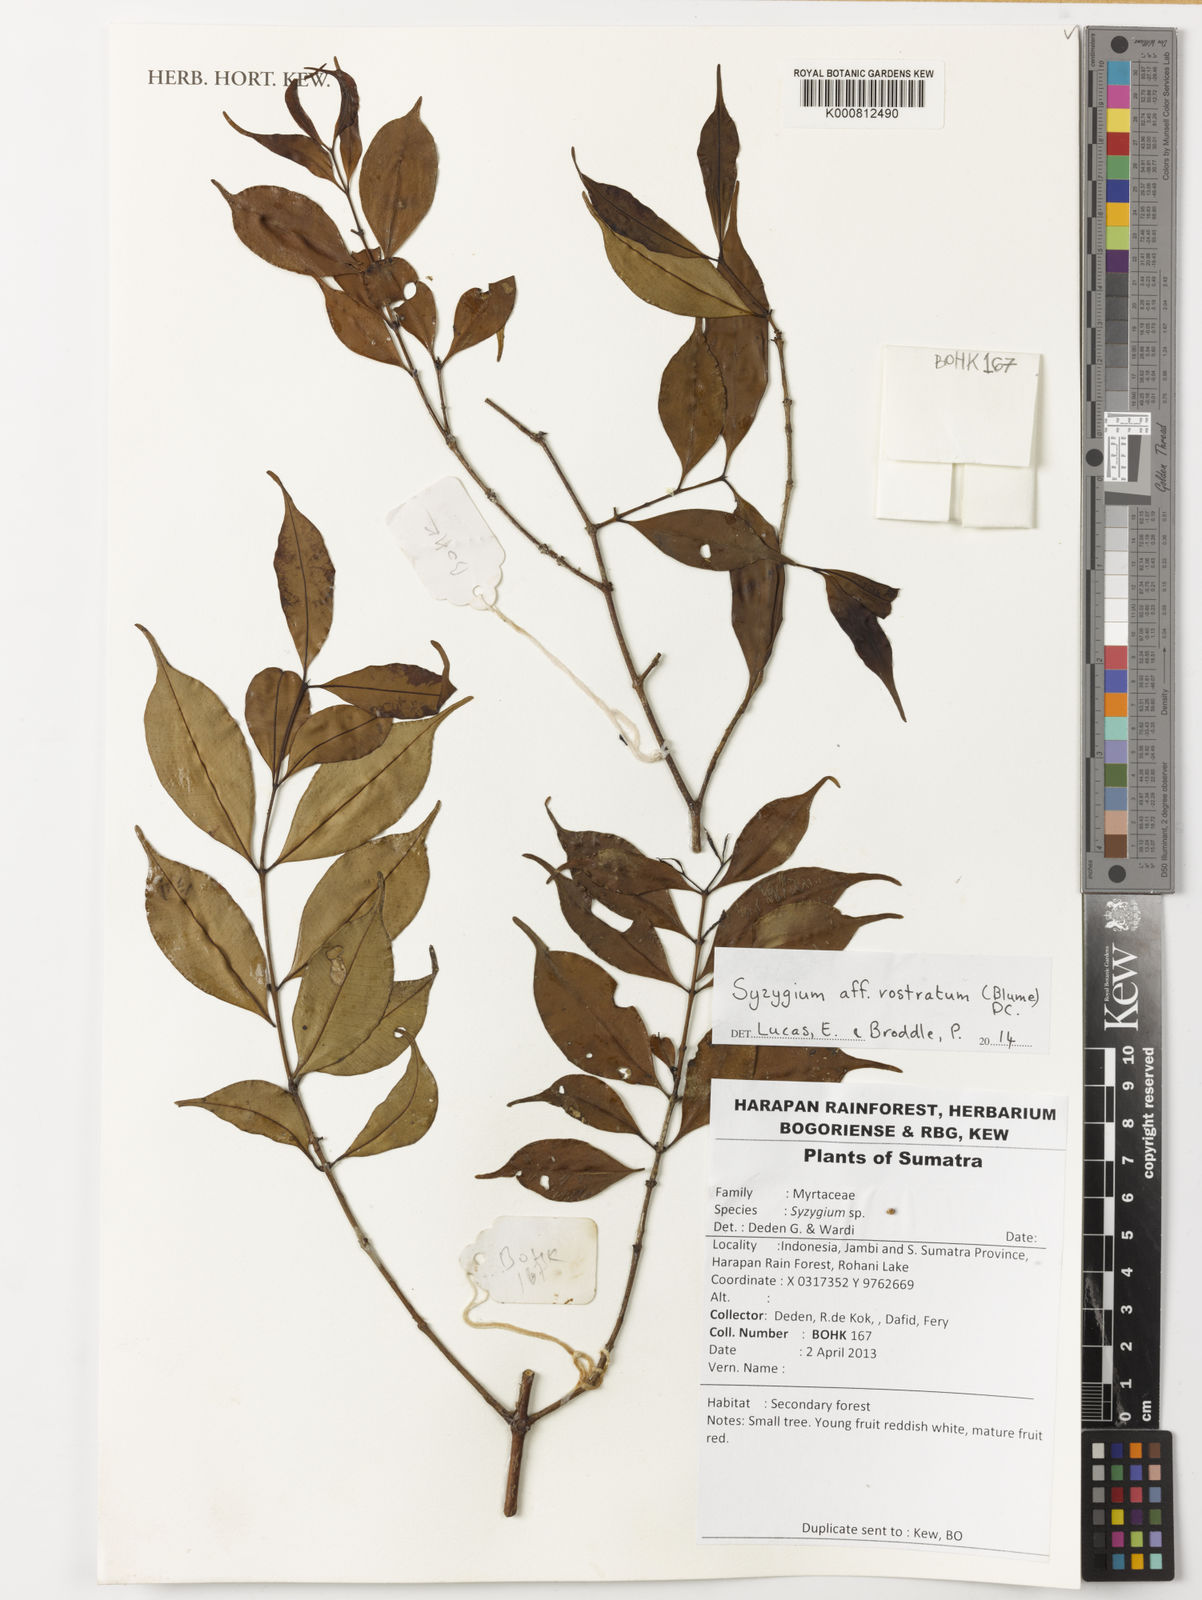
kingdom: Plantae
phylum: Tracheophyta
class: Magnoliopsida
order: Myrtales
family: Myrtaceae
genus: Syzygium
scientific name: Syzygium rostratum
